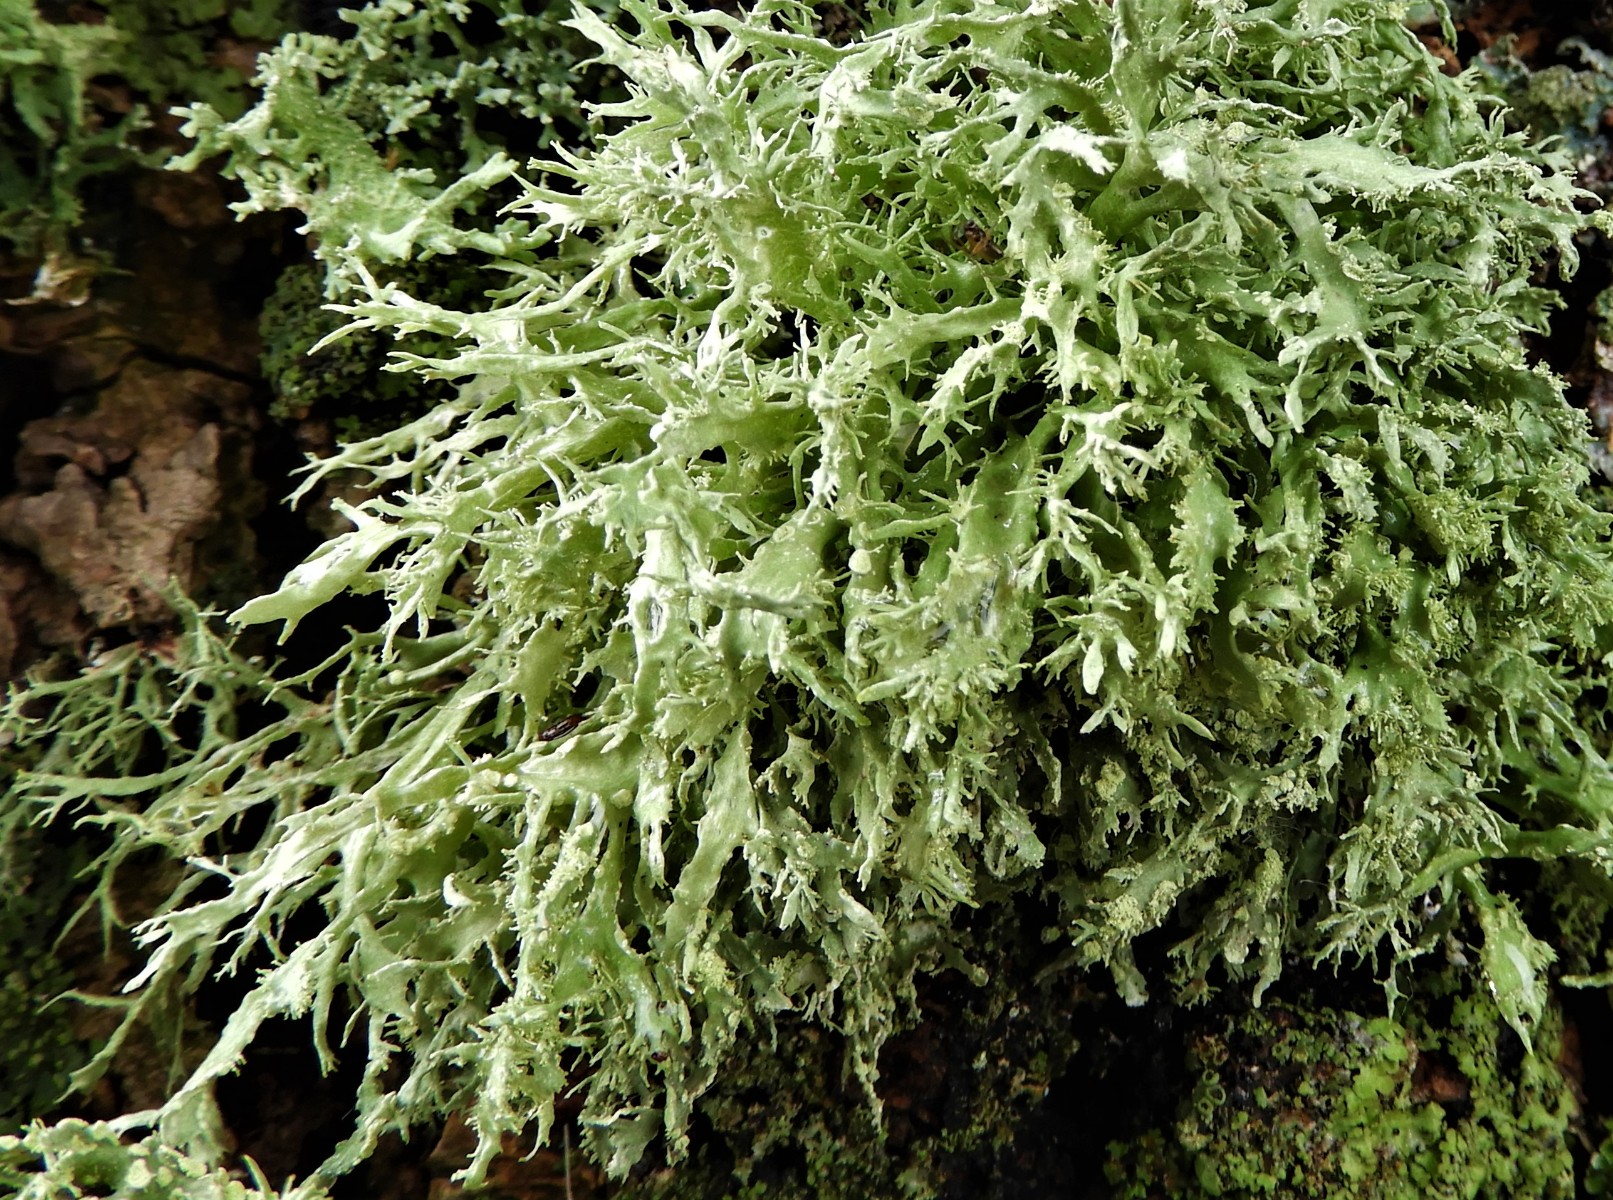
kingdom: Fungi
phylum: Ascomycota
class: Lecanoromycetes
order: Lecanorales
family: Ramalinaceae
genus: Ramalina
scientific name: Ramalina farinacea
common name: melet grenlav
